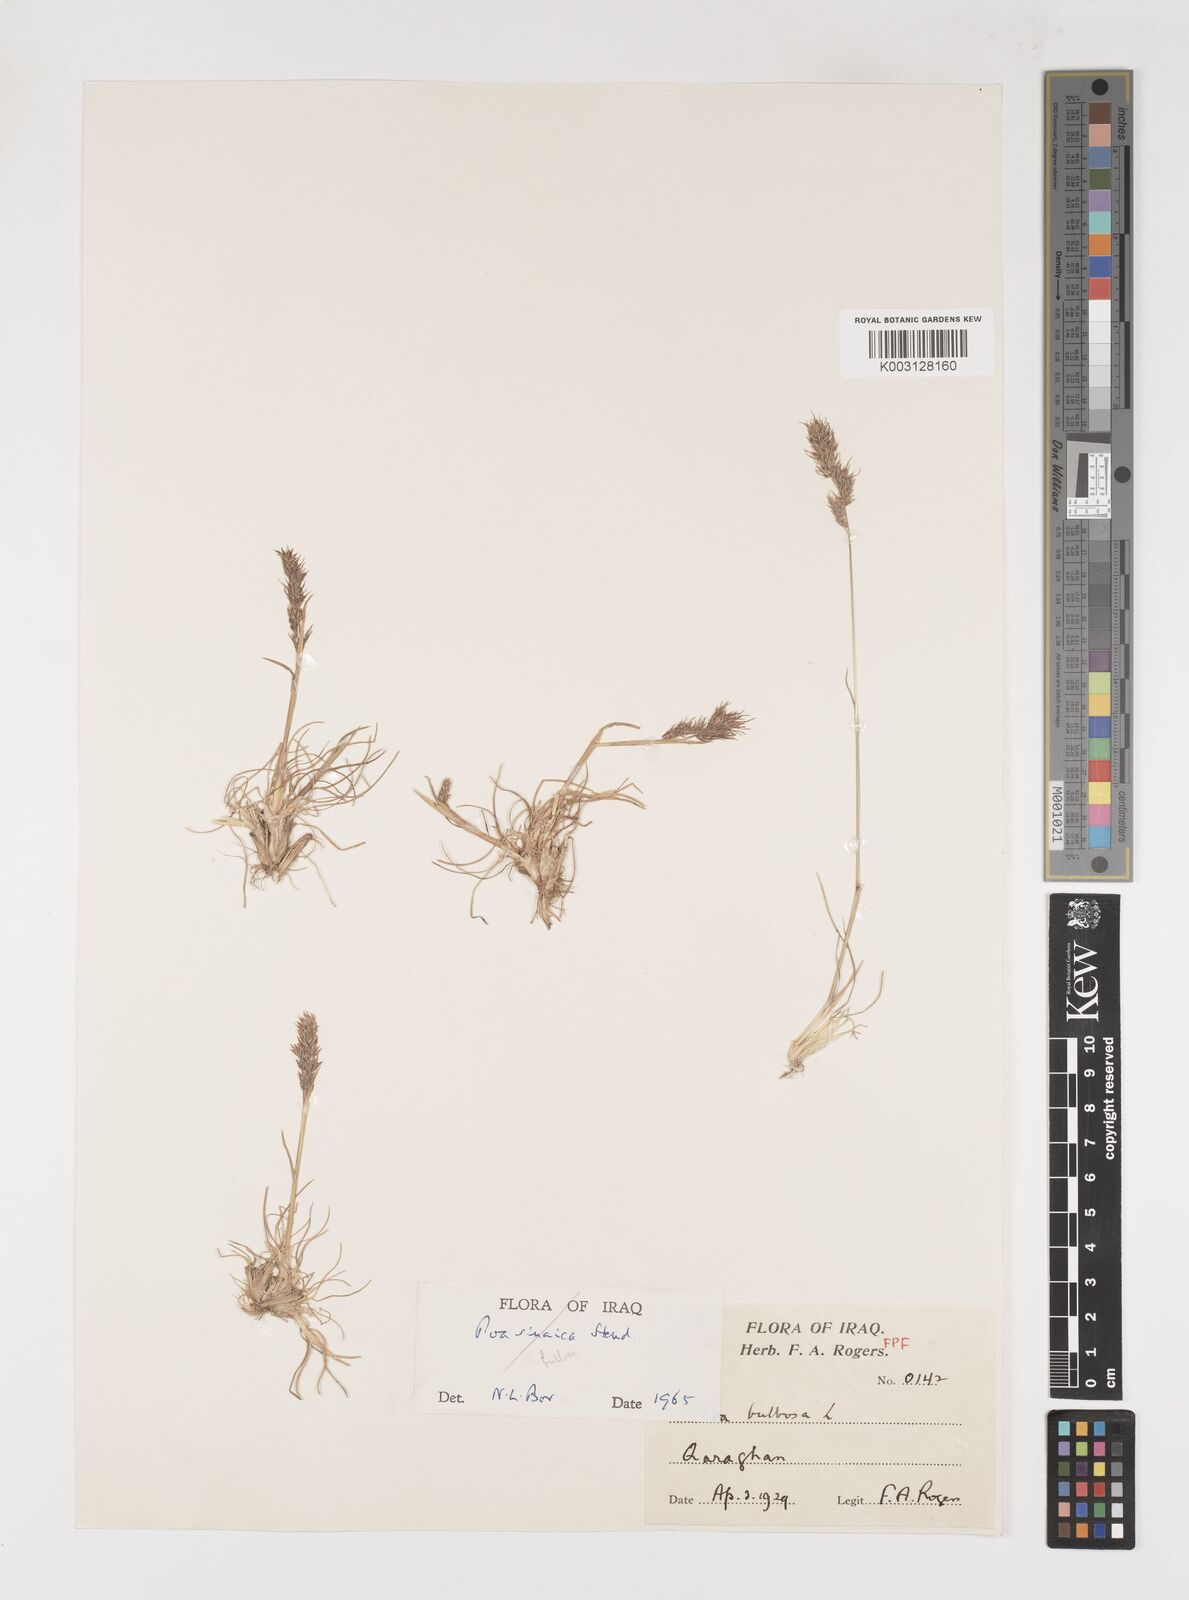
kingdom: Plantae
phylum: Tracheophyta
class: Liliopsida
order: Poales
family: Poaceae
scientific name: Poaceae
